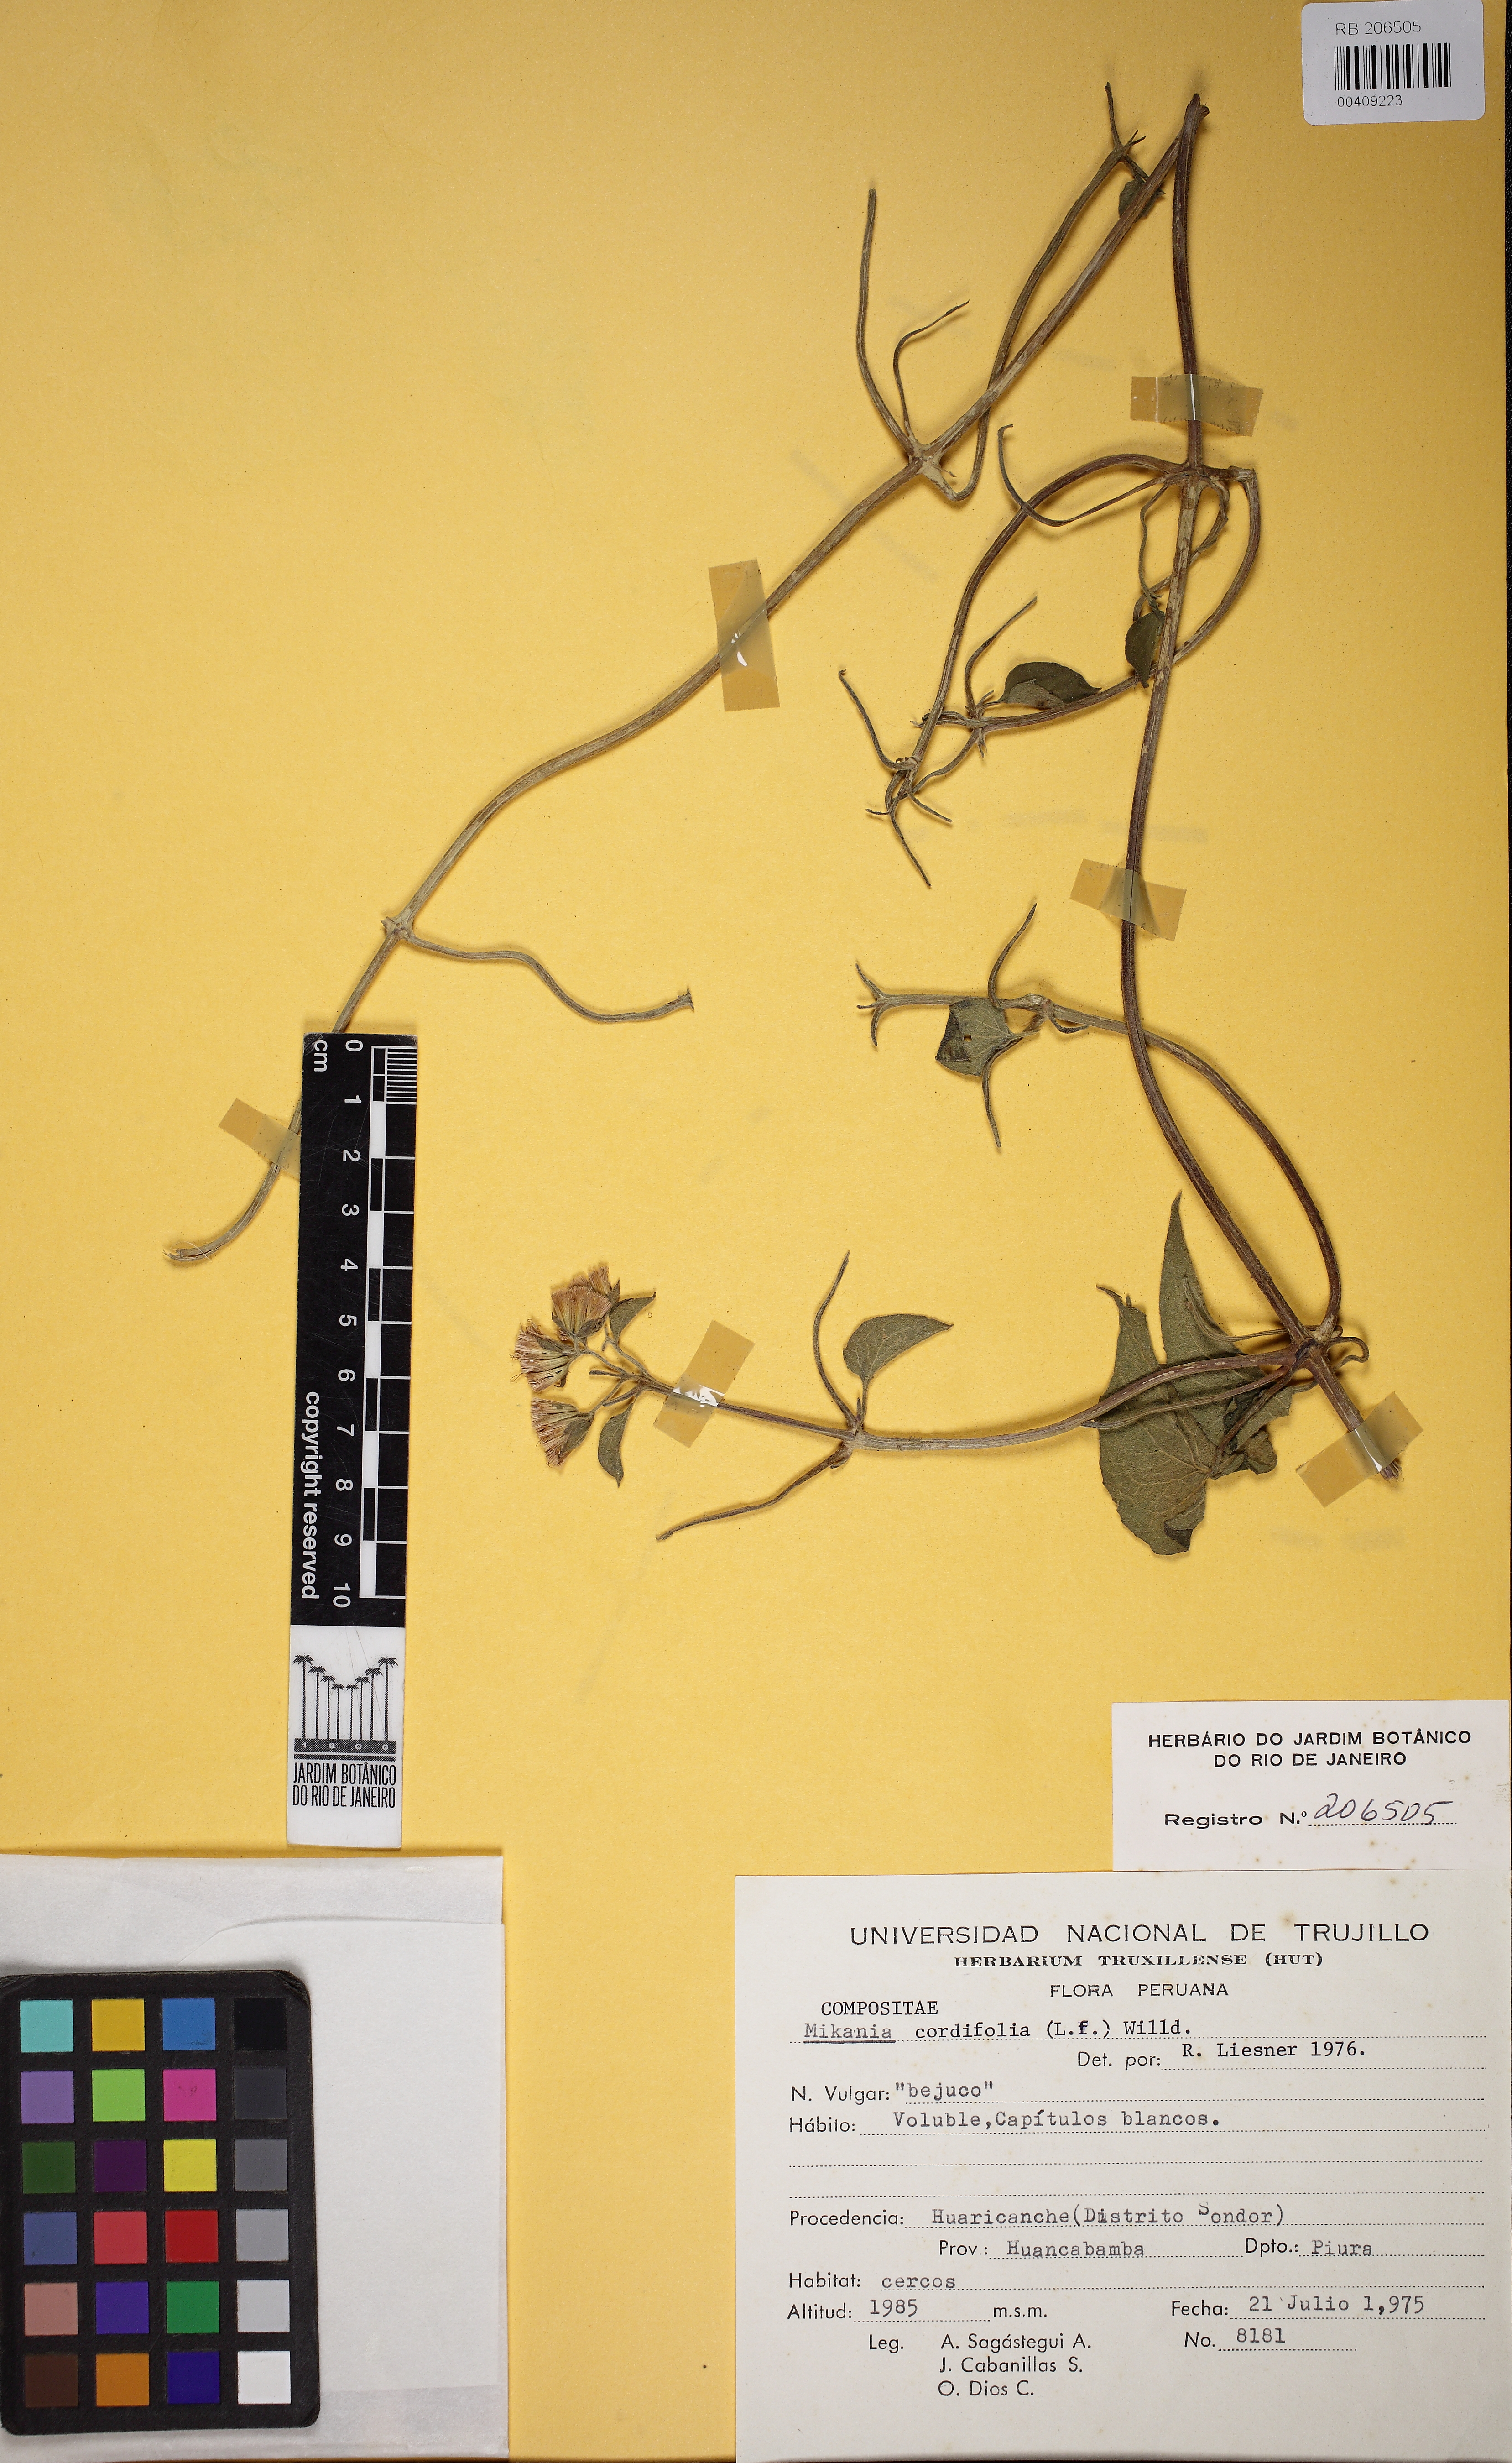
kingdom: Plantae
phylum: Tracheophyta
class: Magnoliopsida
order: Asterales
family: Asteraceae
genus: Mikania
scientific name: Mikania cordifolia
